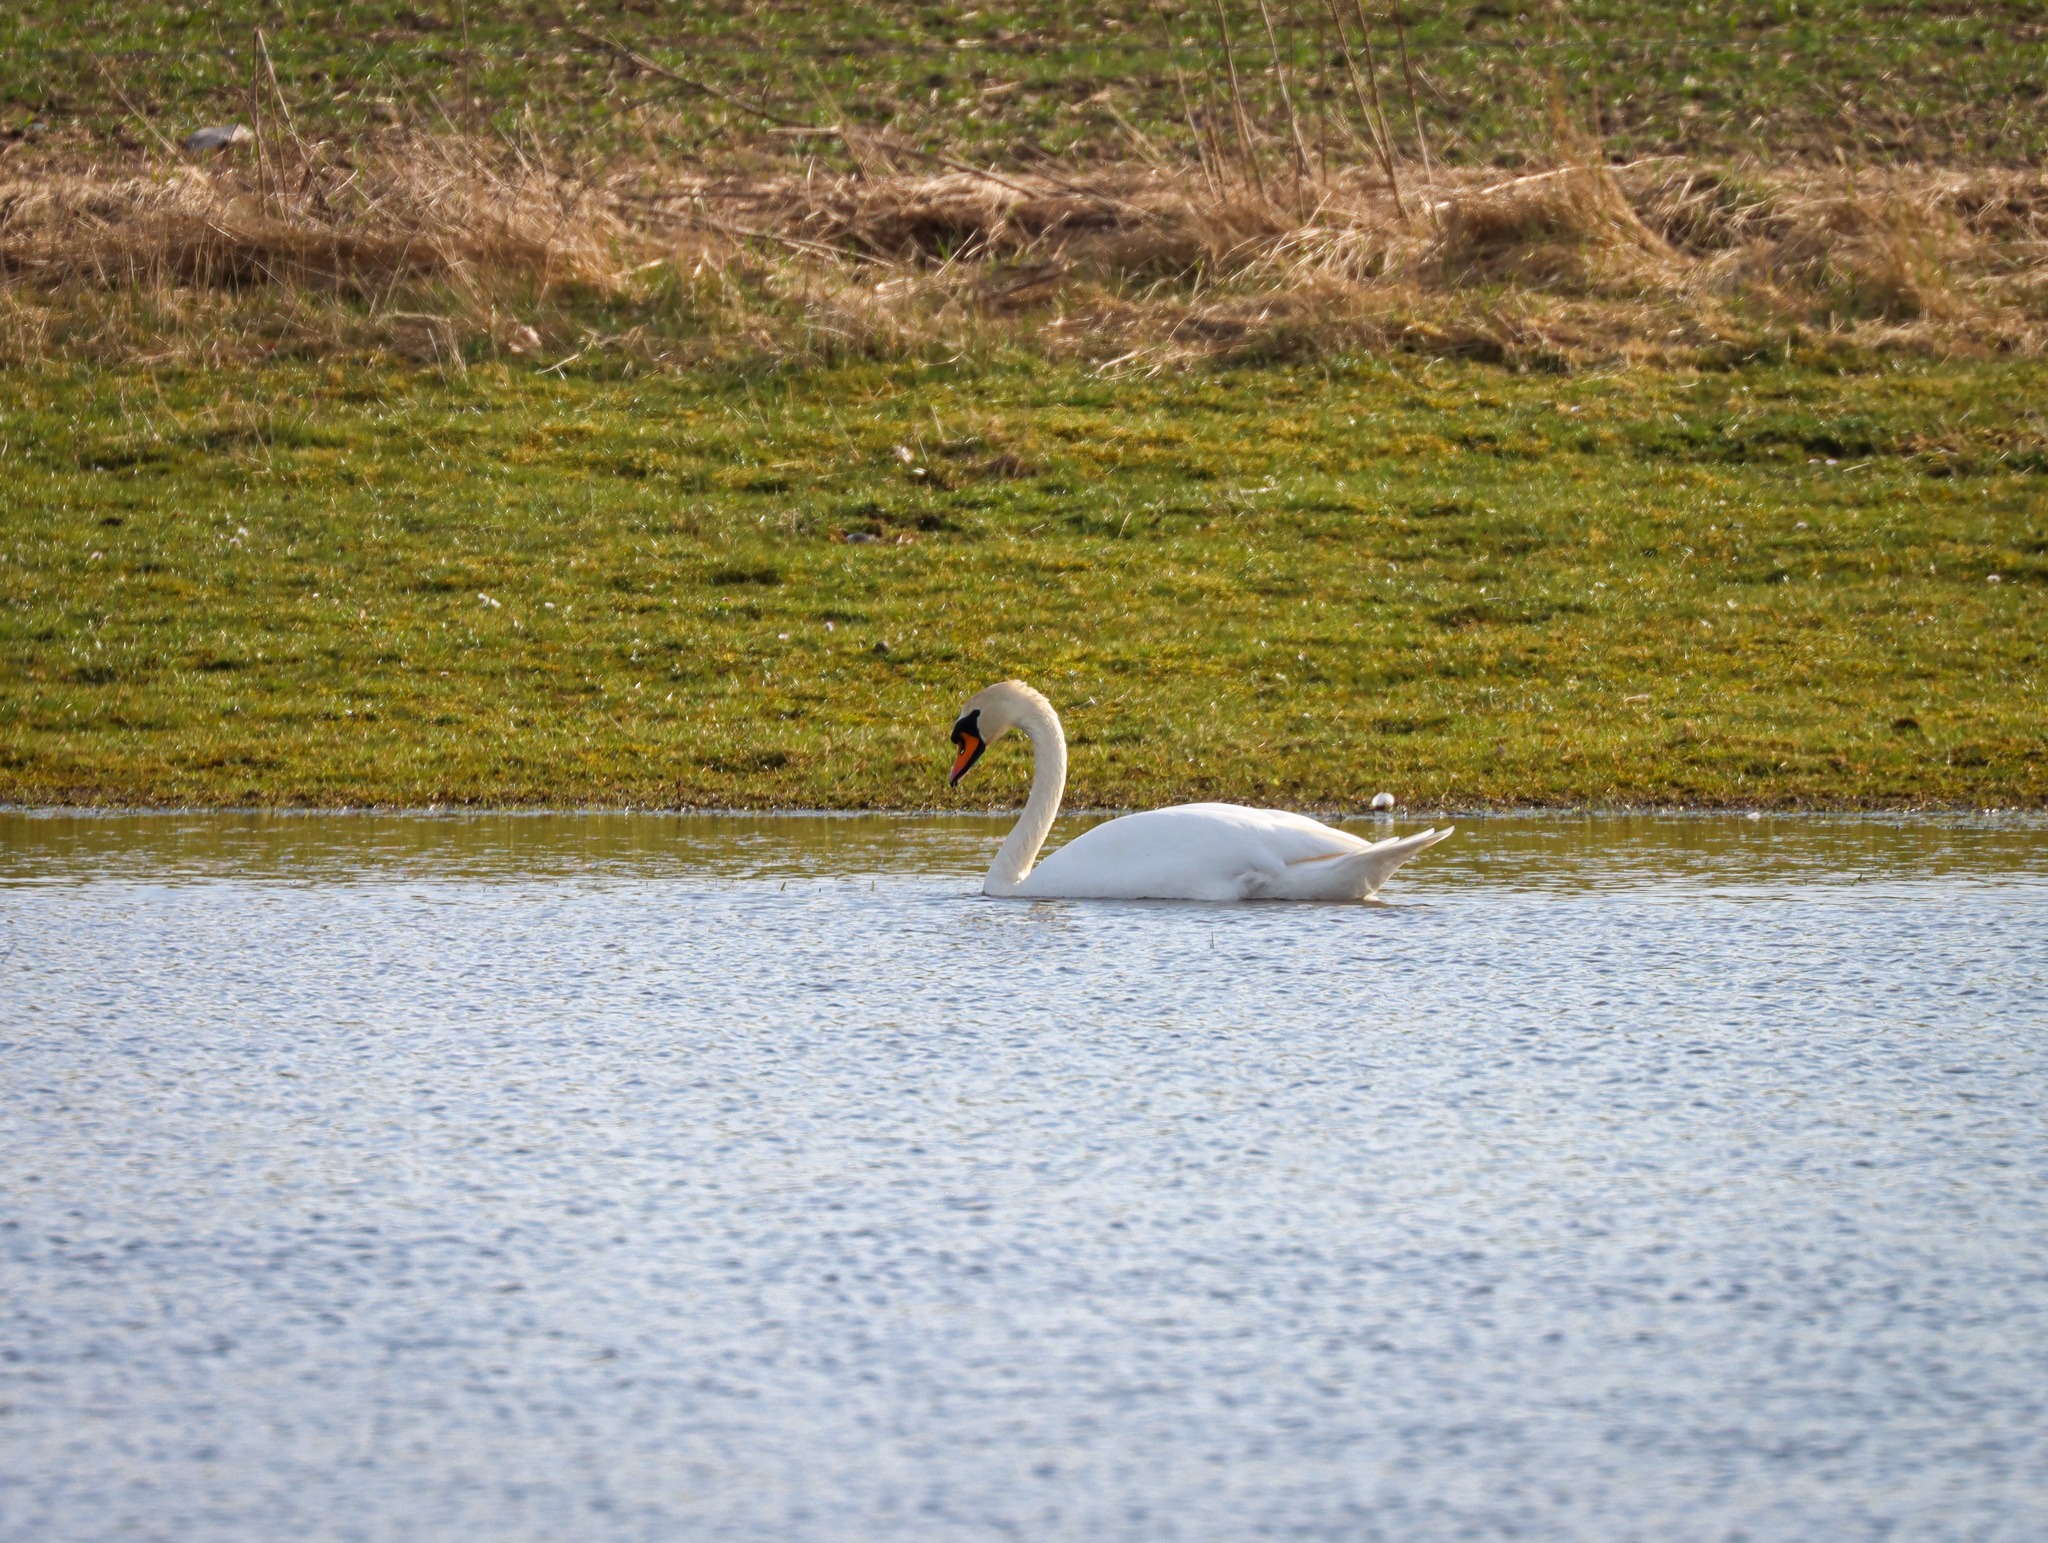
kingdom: Animalia
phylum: Chordata
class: Aves
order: Anseriformes
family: Anatidae
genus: Cygnus
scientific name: Cygnus olor
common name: Knopsvane
